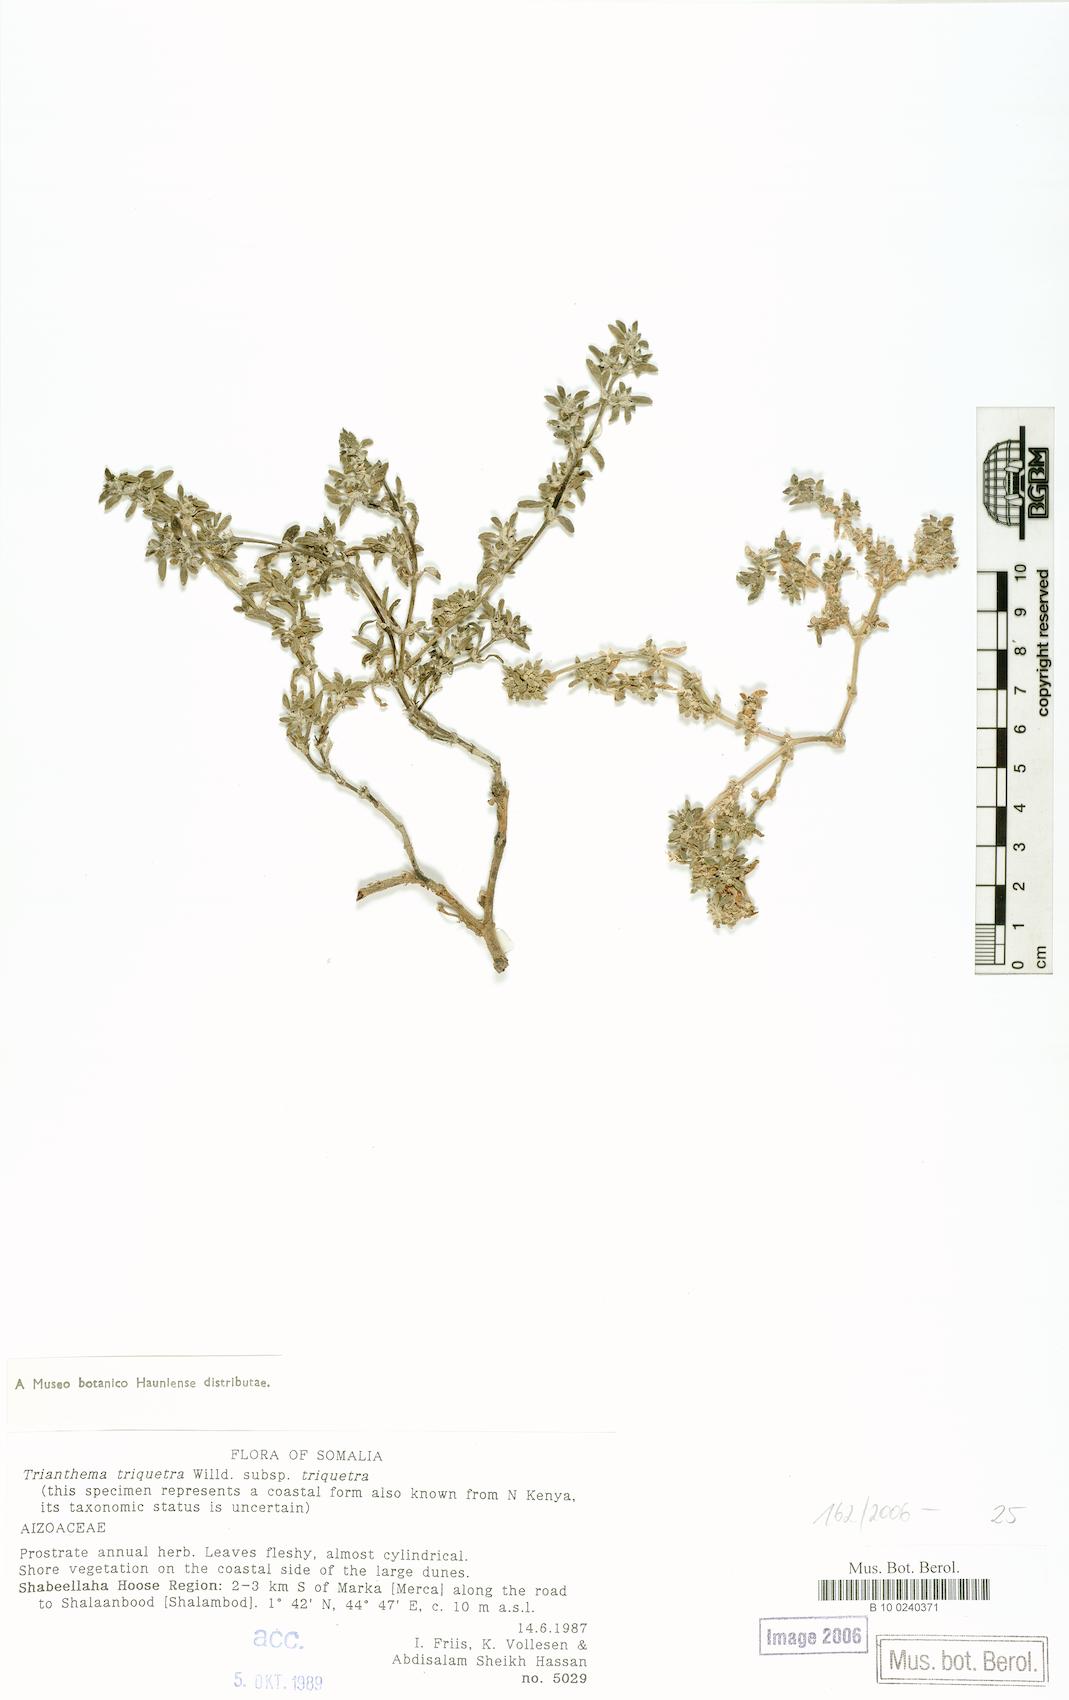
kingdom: Plantae
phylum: Tracheophyta
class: Magnoliopsida
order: Caryophyllales
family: Aizoaceae
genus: Trianthema
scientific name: Trianthema corallicolum
